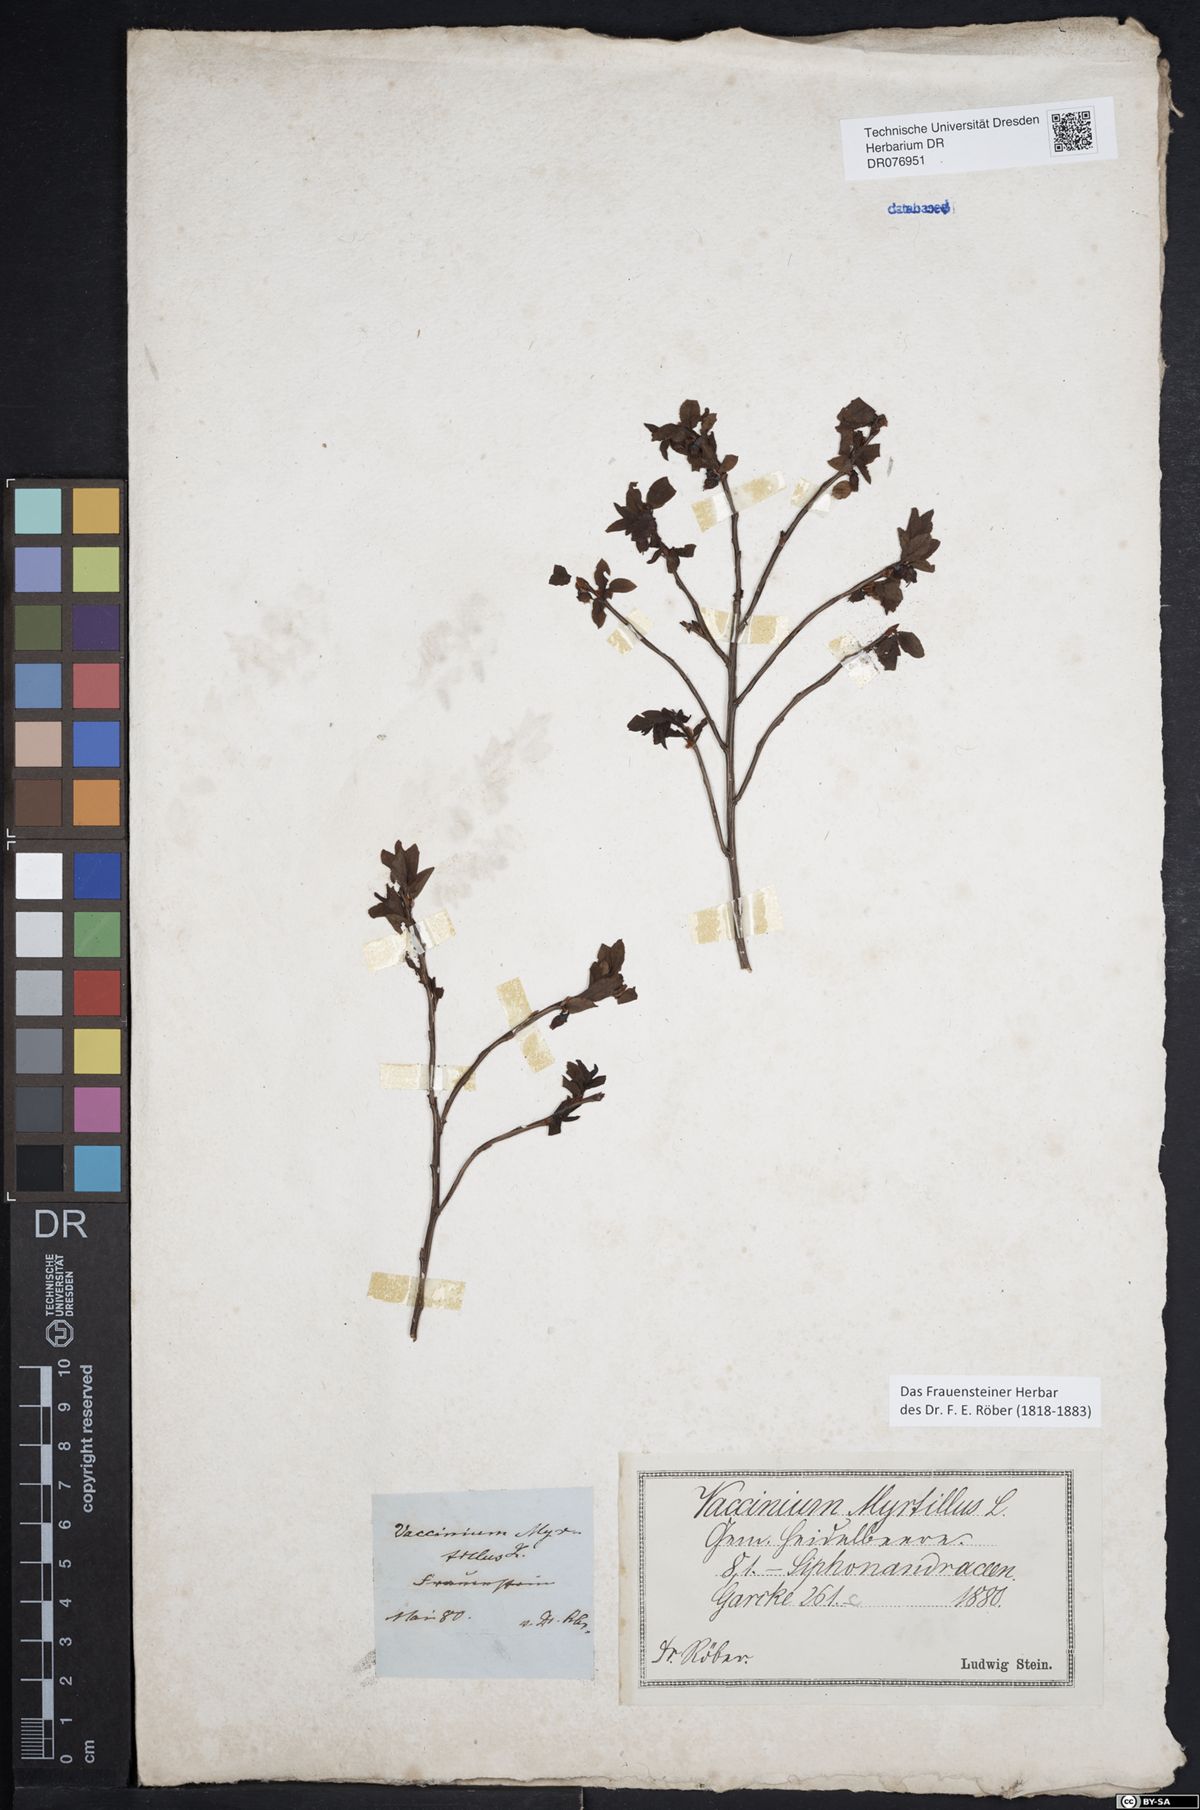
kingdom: Plantae
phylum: Tracheophyta
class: Magnoliopsida
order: Ericales
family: Ericaceae
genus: Vaccinium
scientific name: Vaccinium myrtillus
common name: Bilberry
